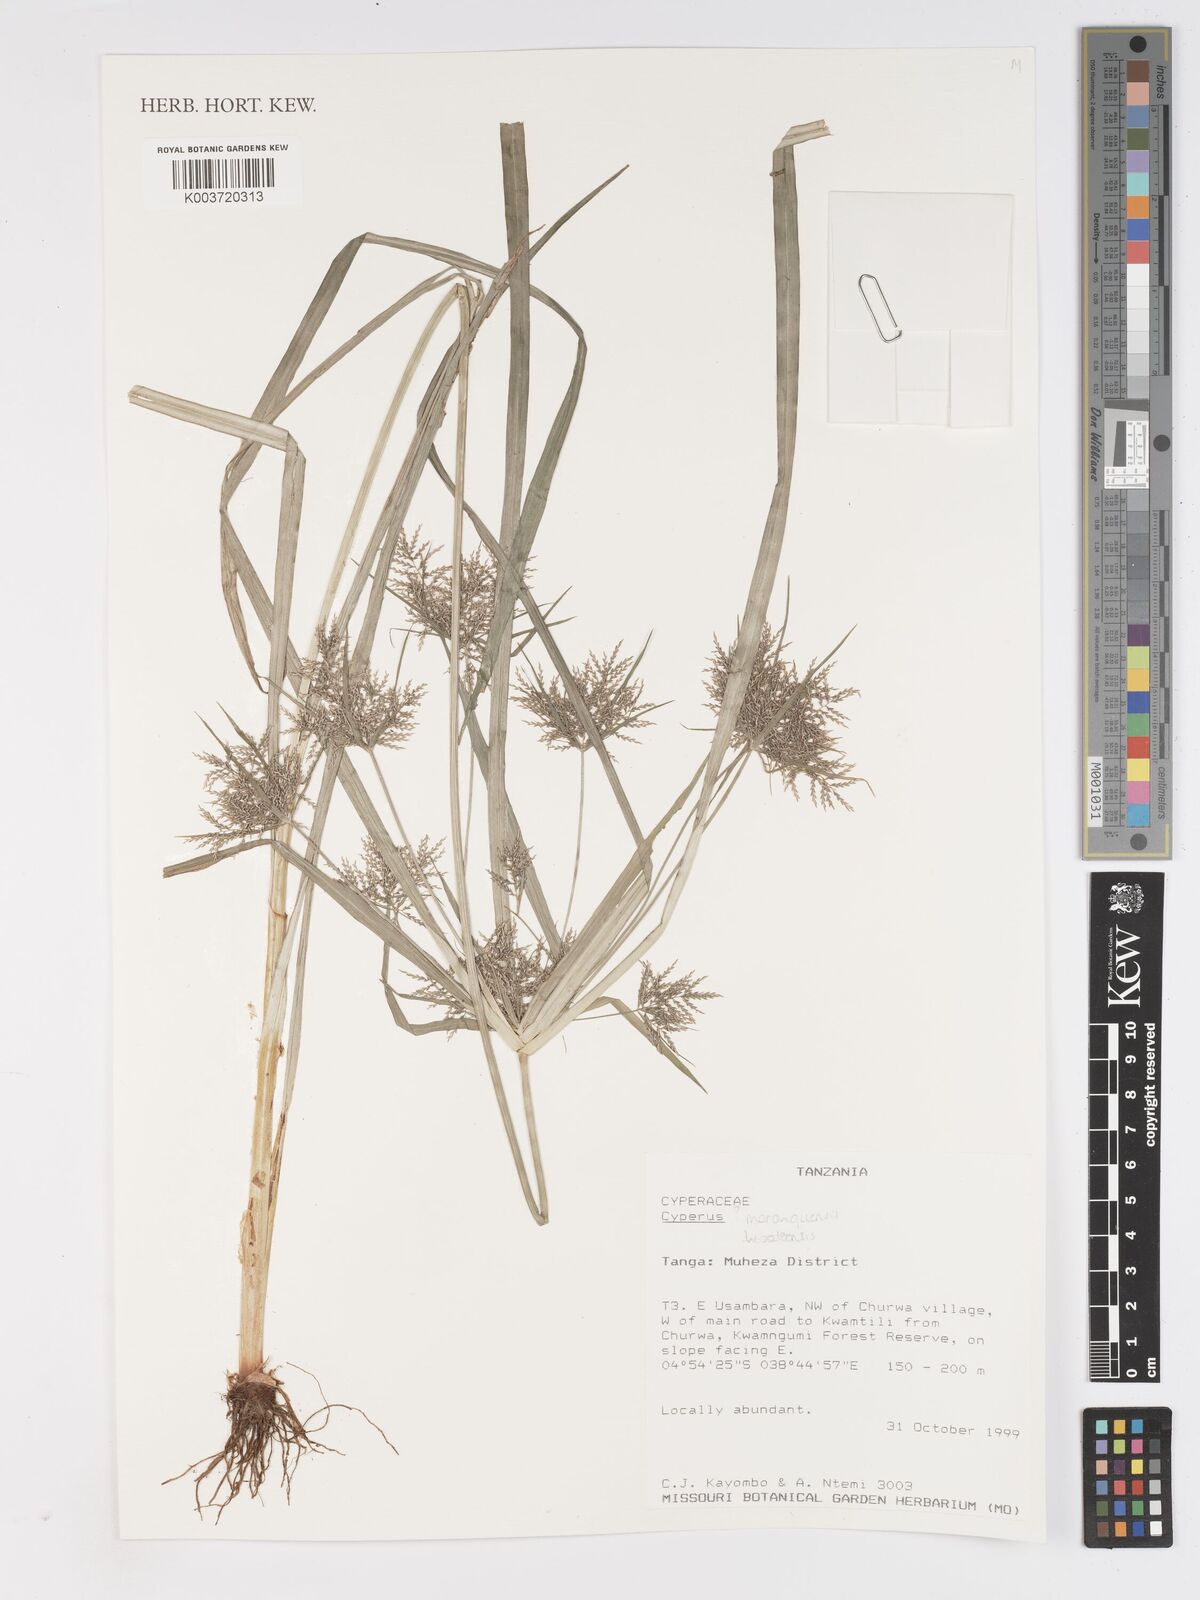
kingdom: Plantae
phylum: Tracheophyta
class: Liliopsida
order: Poales
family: Cyperaceae
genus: Cyperus
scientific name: Cyperus
